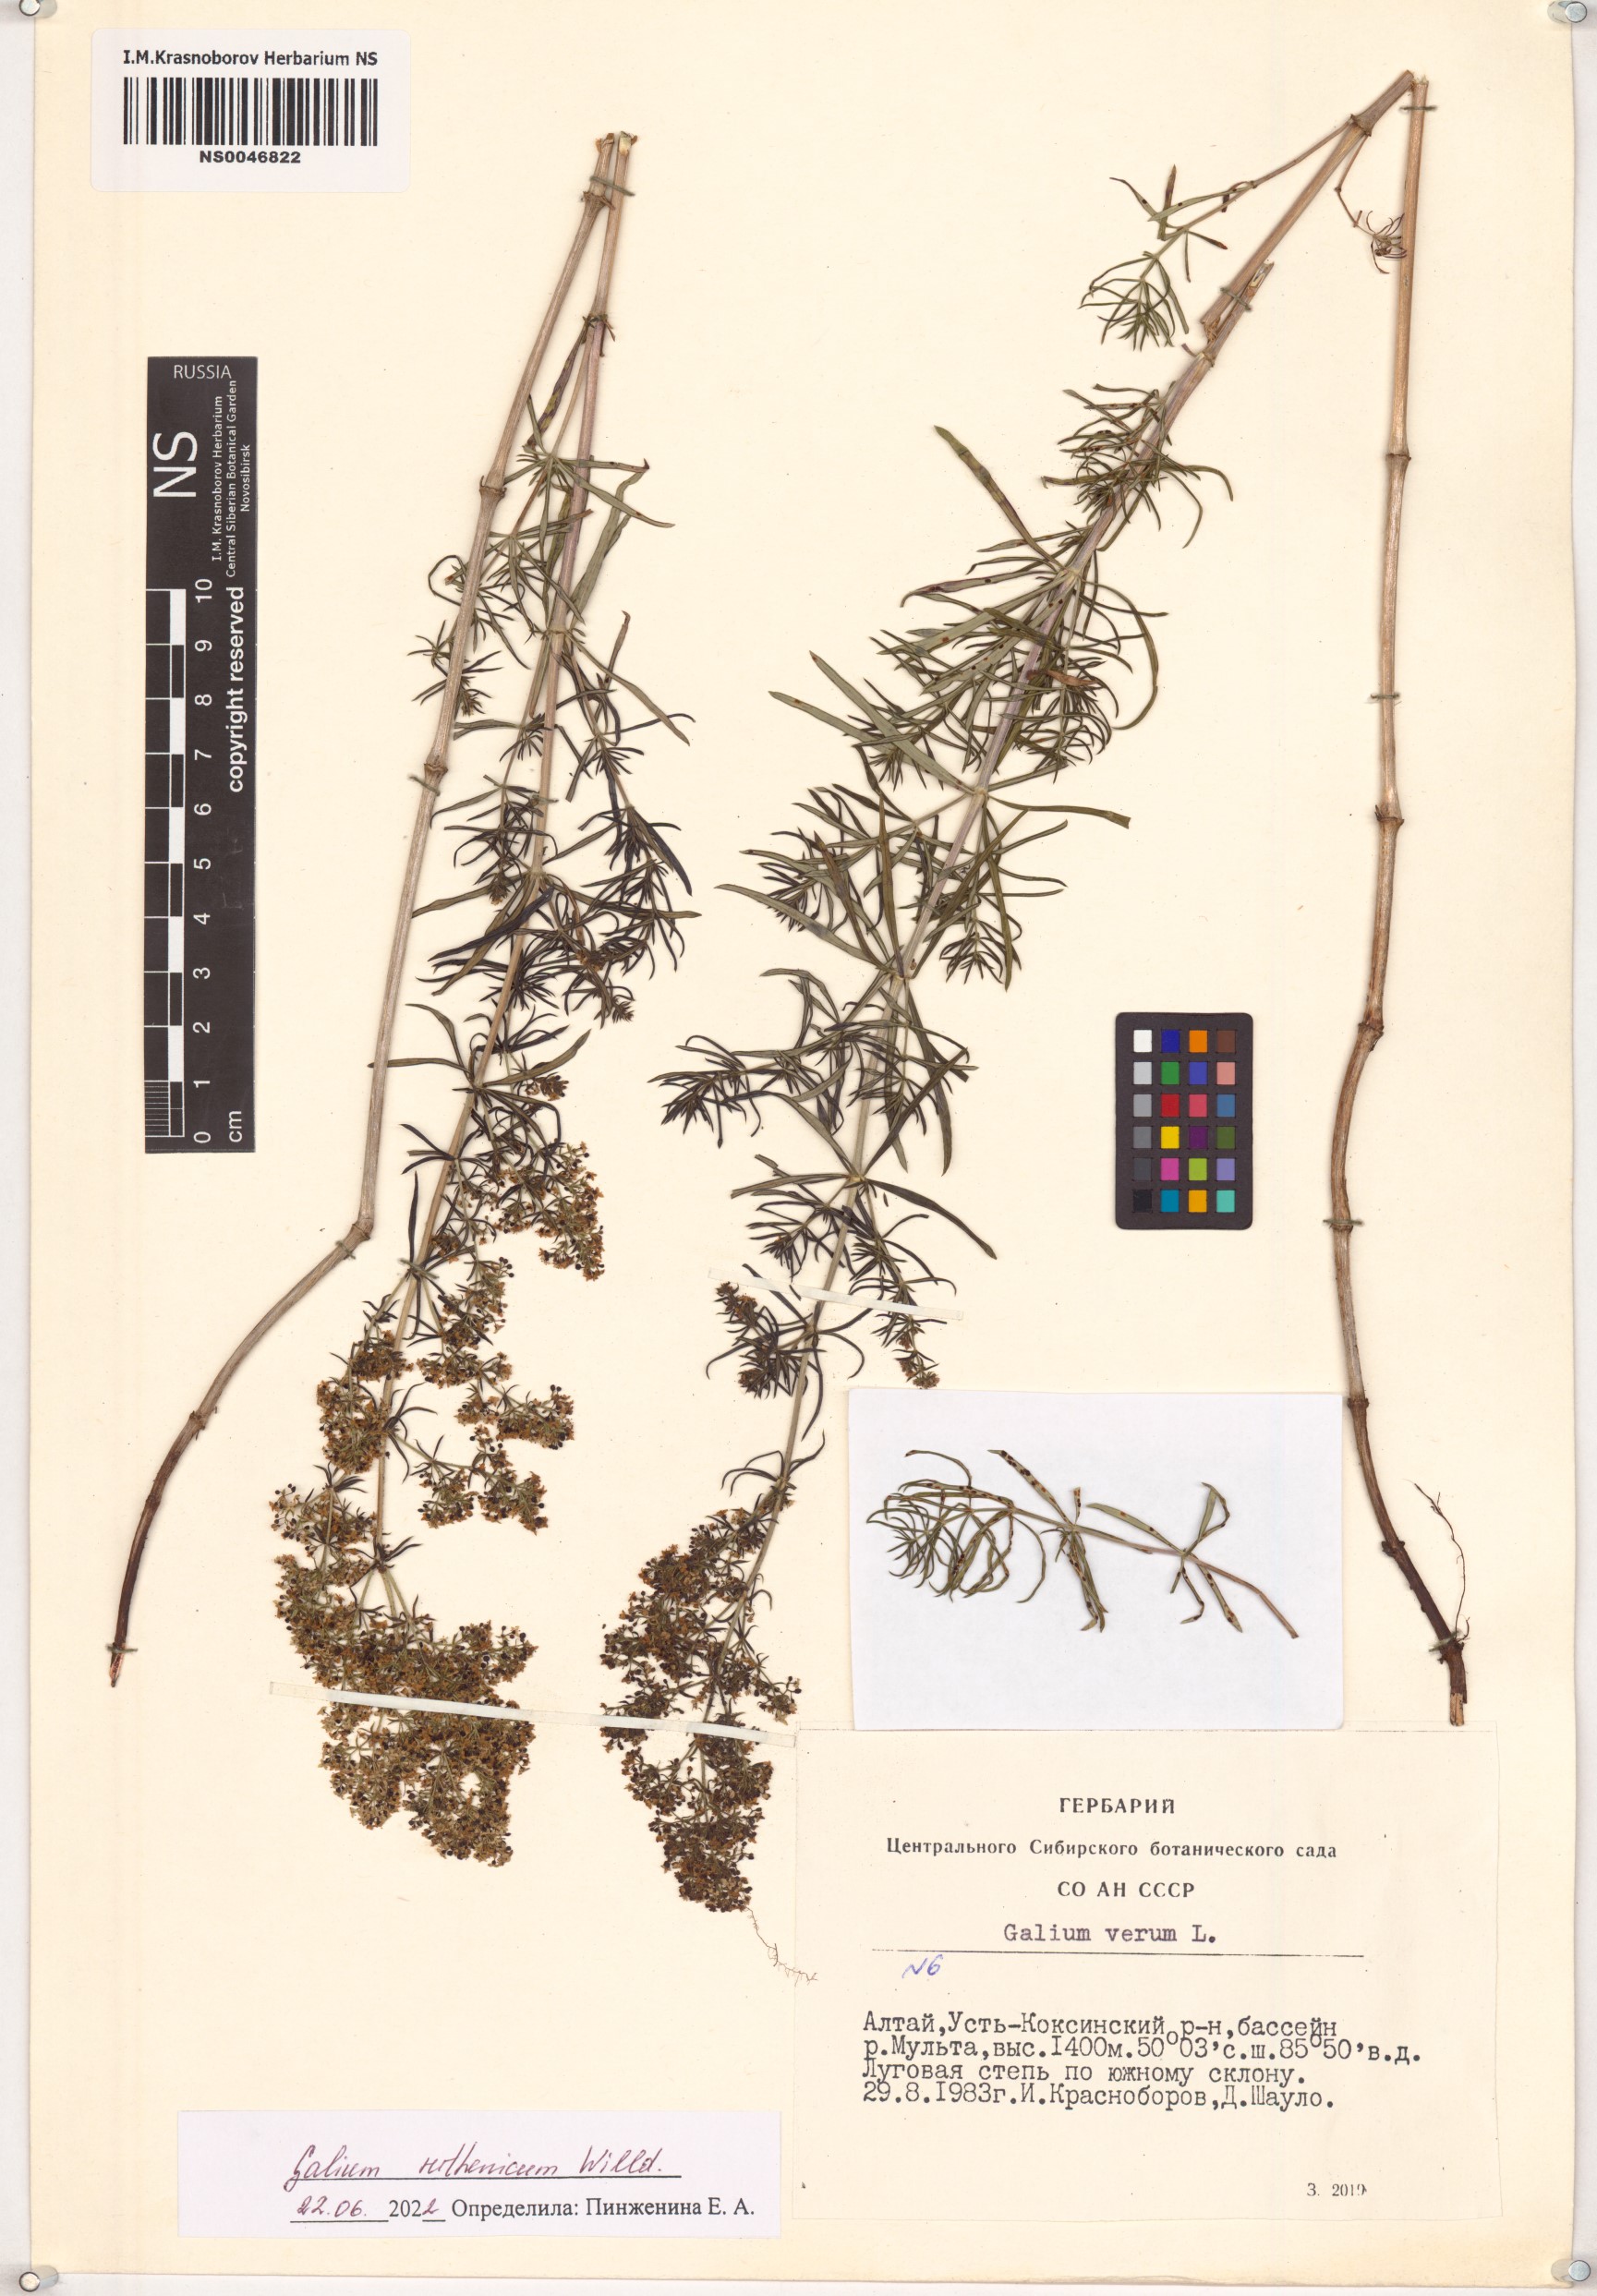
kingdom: Plantae
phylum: Tracheophyta
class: Magnoliopsida
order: Gentianales
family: Rubiaceae
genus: Galium
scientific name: Galium verum
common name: Lady's bedstraw
